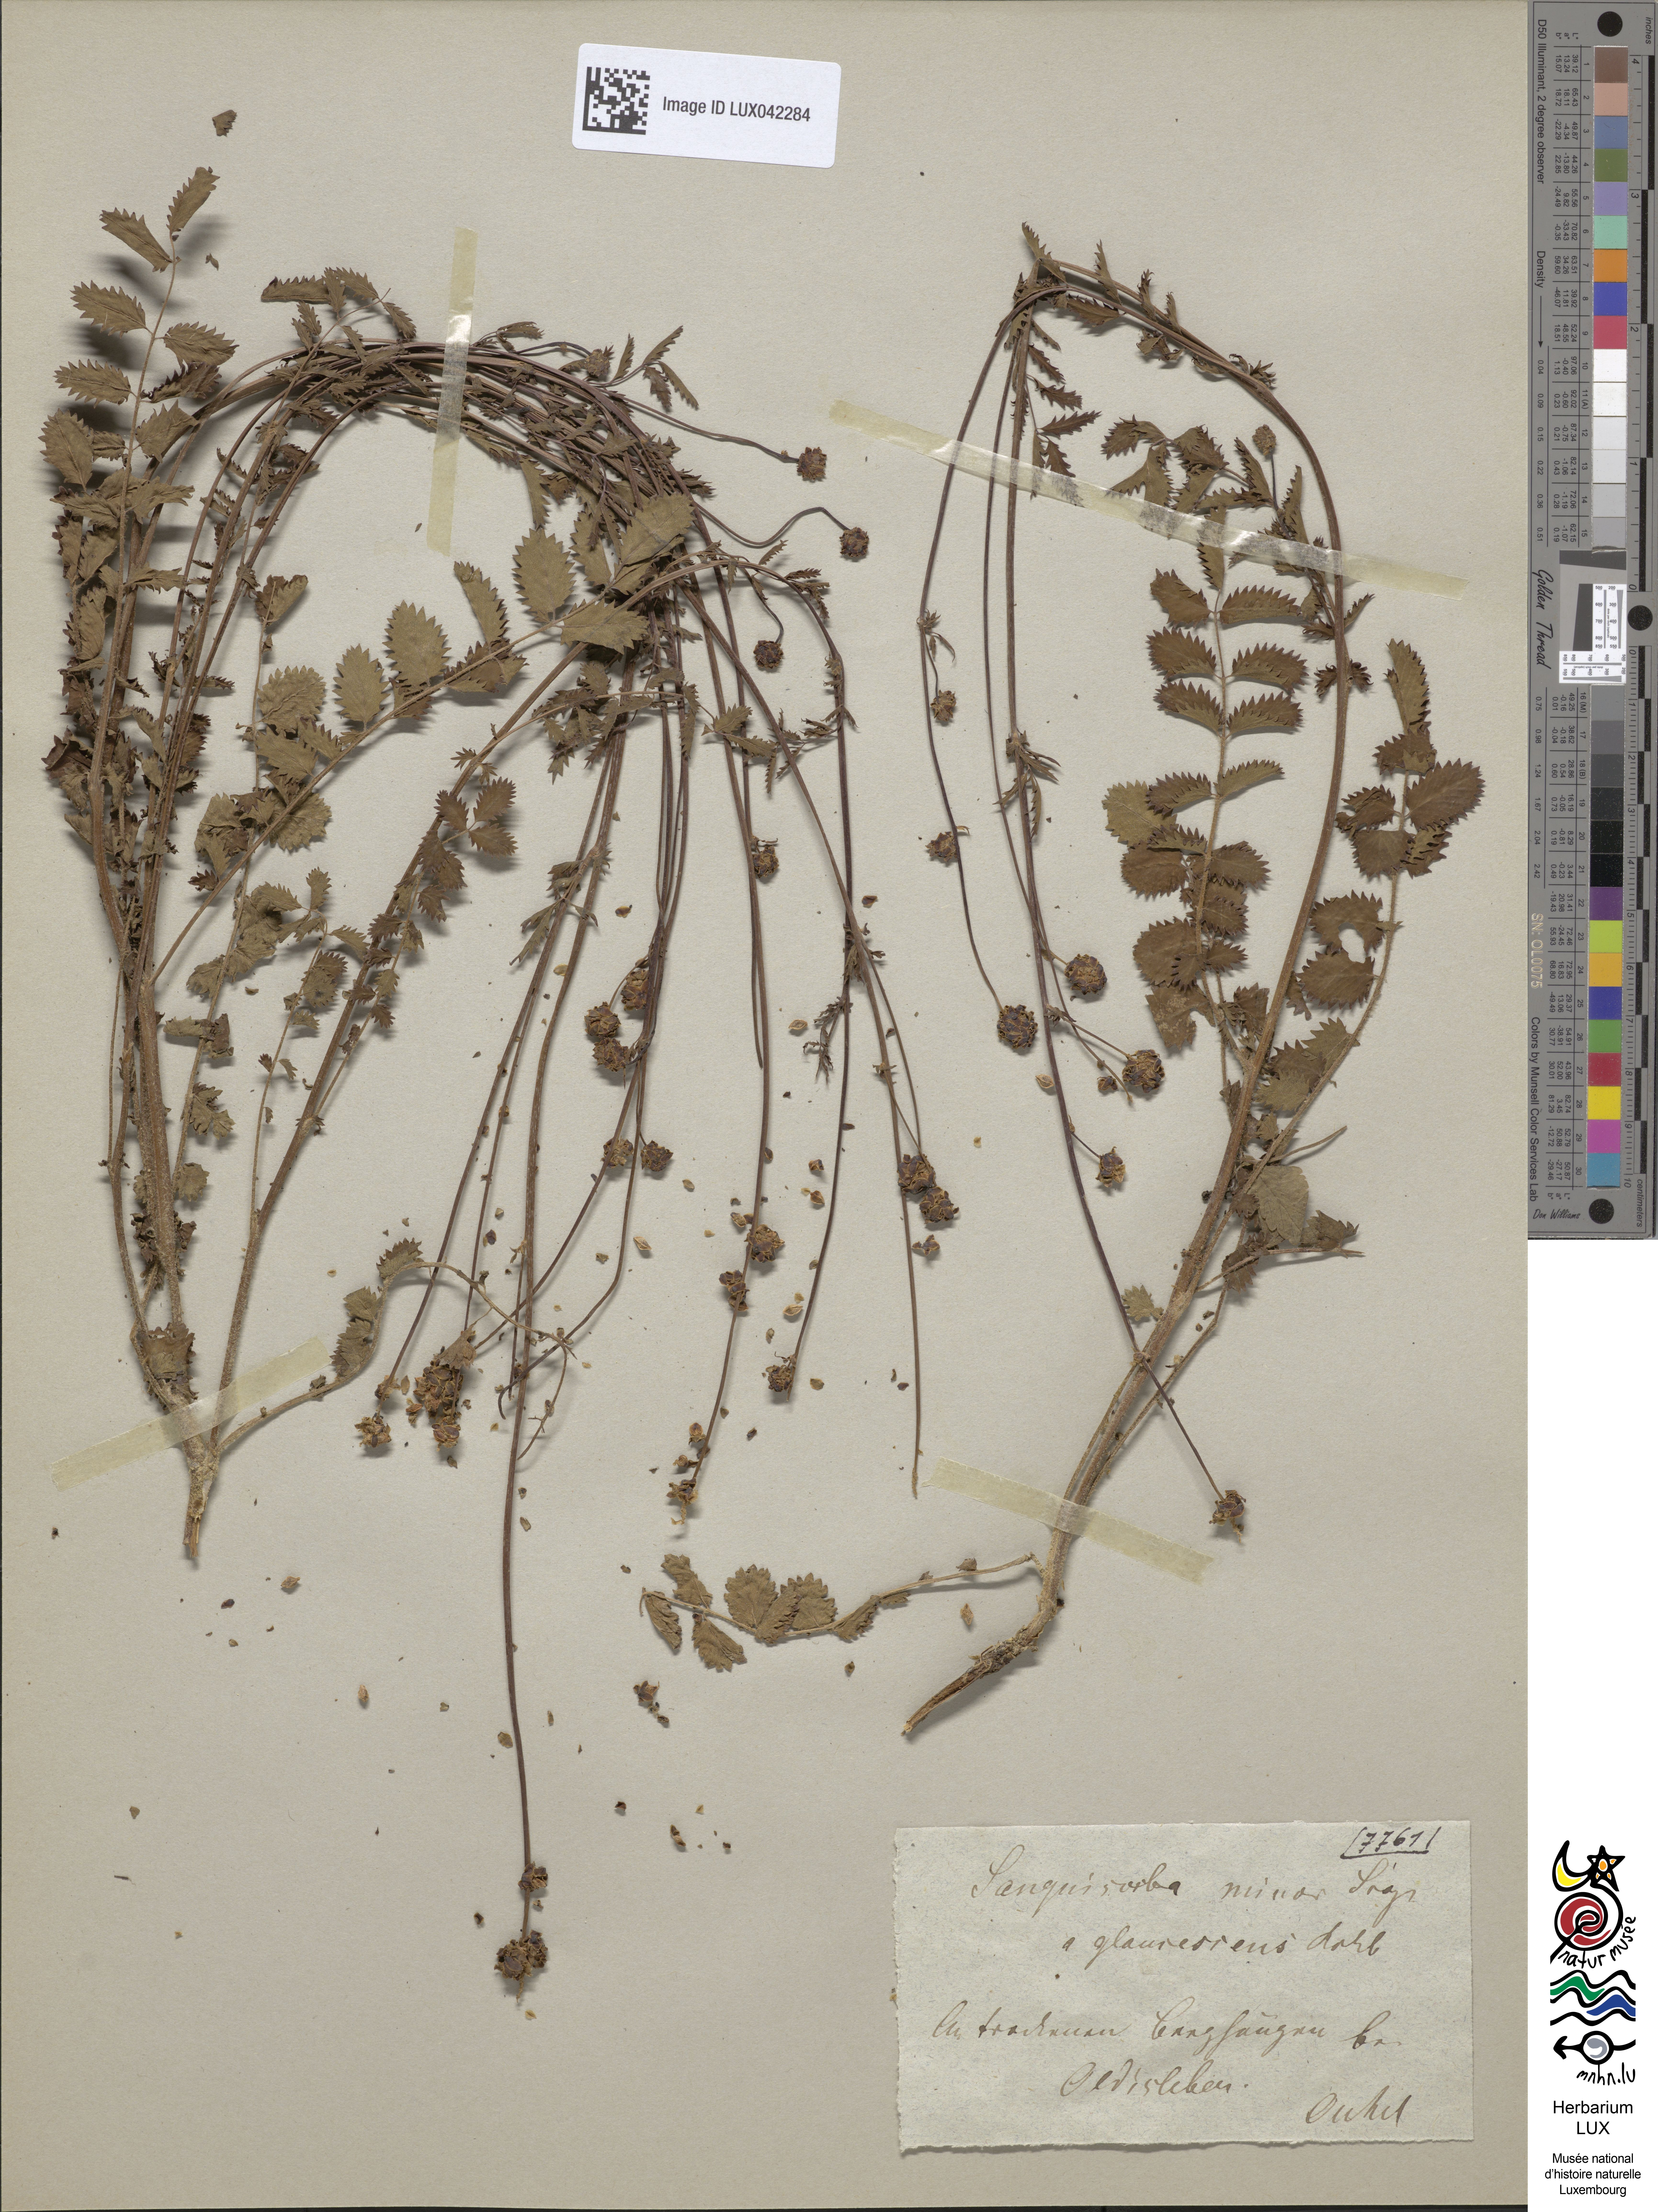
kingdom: Plantae
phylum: Tracheophyta
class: Magnoliopsida
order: Rosales
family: Rosaceae
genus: Poterium
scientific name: Poterium sanguisorba
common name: Salad burnet
